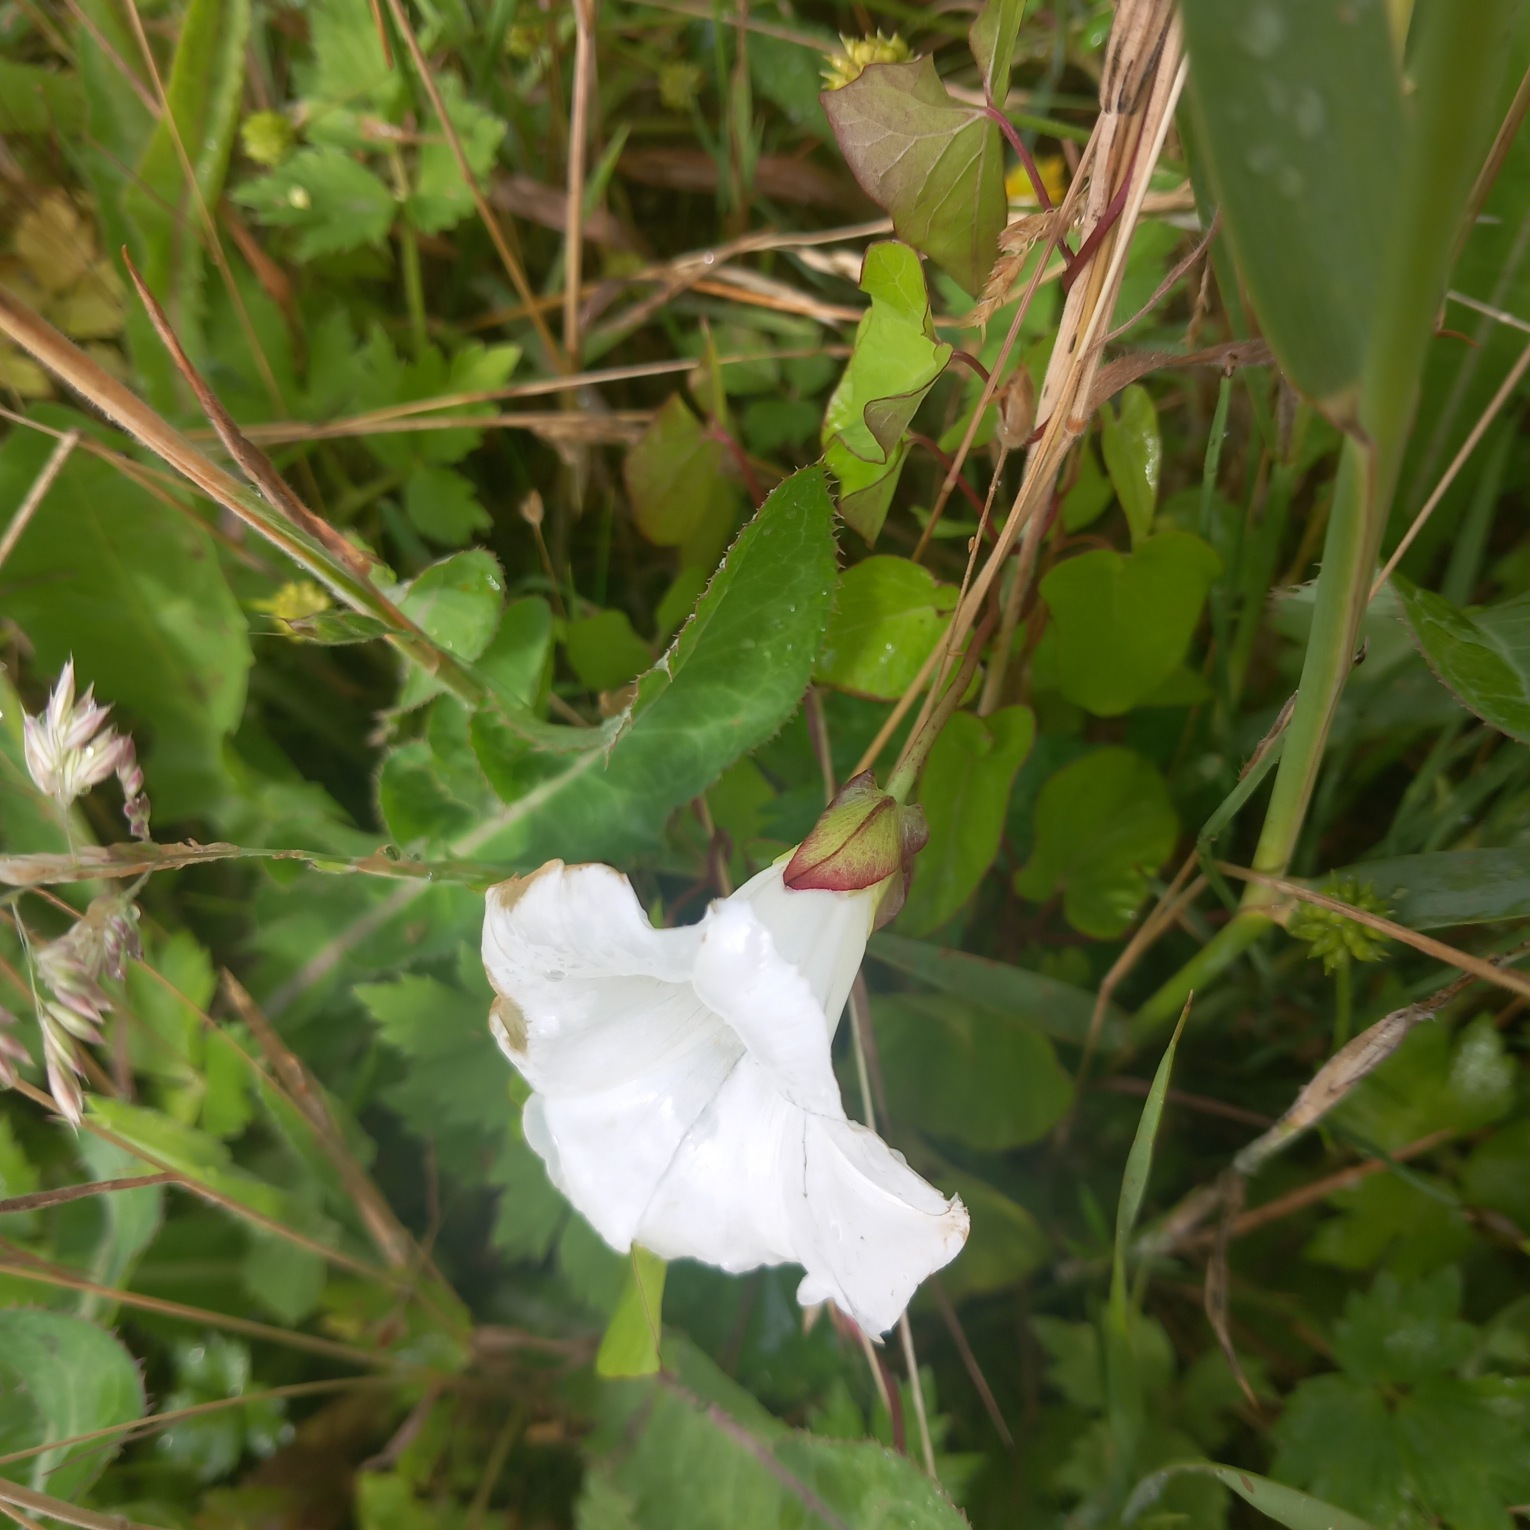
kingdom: Plantae
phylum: Tracheophyta
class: Magnoliopsida
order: Solanales
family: Convolvulaceae
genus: Calystegia
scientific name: Calystegia sepium
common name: Gærde-snerle
